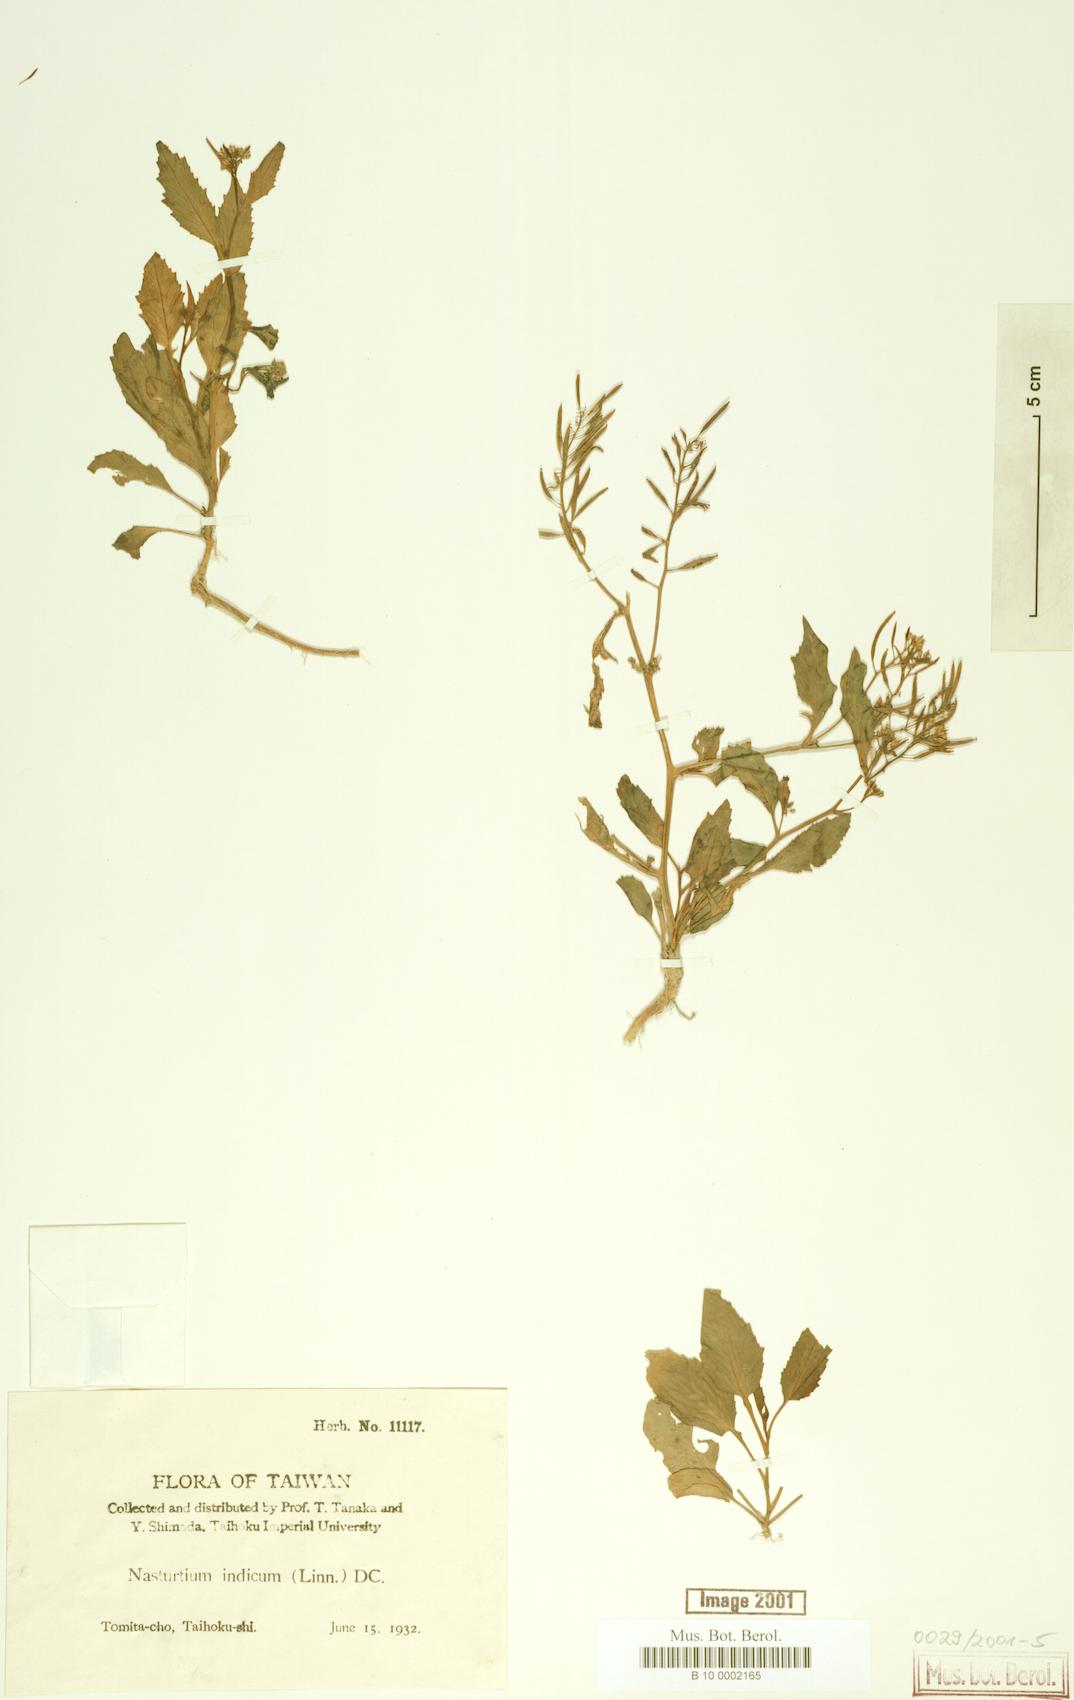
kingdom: Plantae
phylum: Tracheophyta
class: Magnoliopsida
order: Brassicales
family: Brassicaceae
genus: Rorippa
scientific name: Rorippa indica
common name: Variableleaf yellowcress
